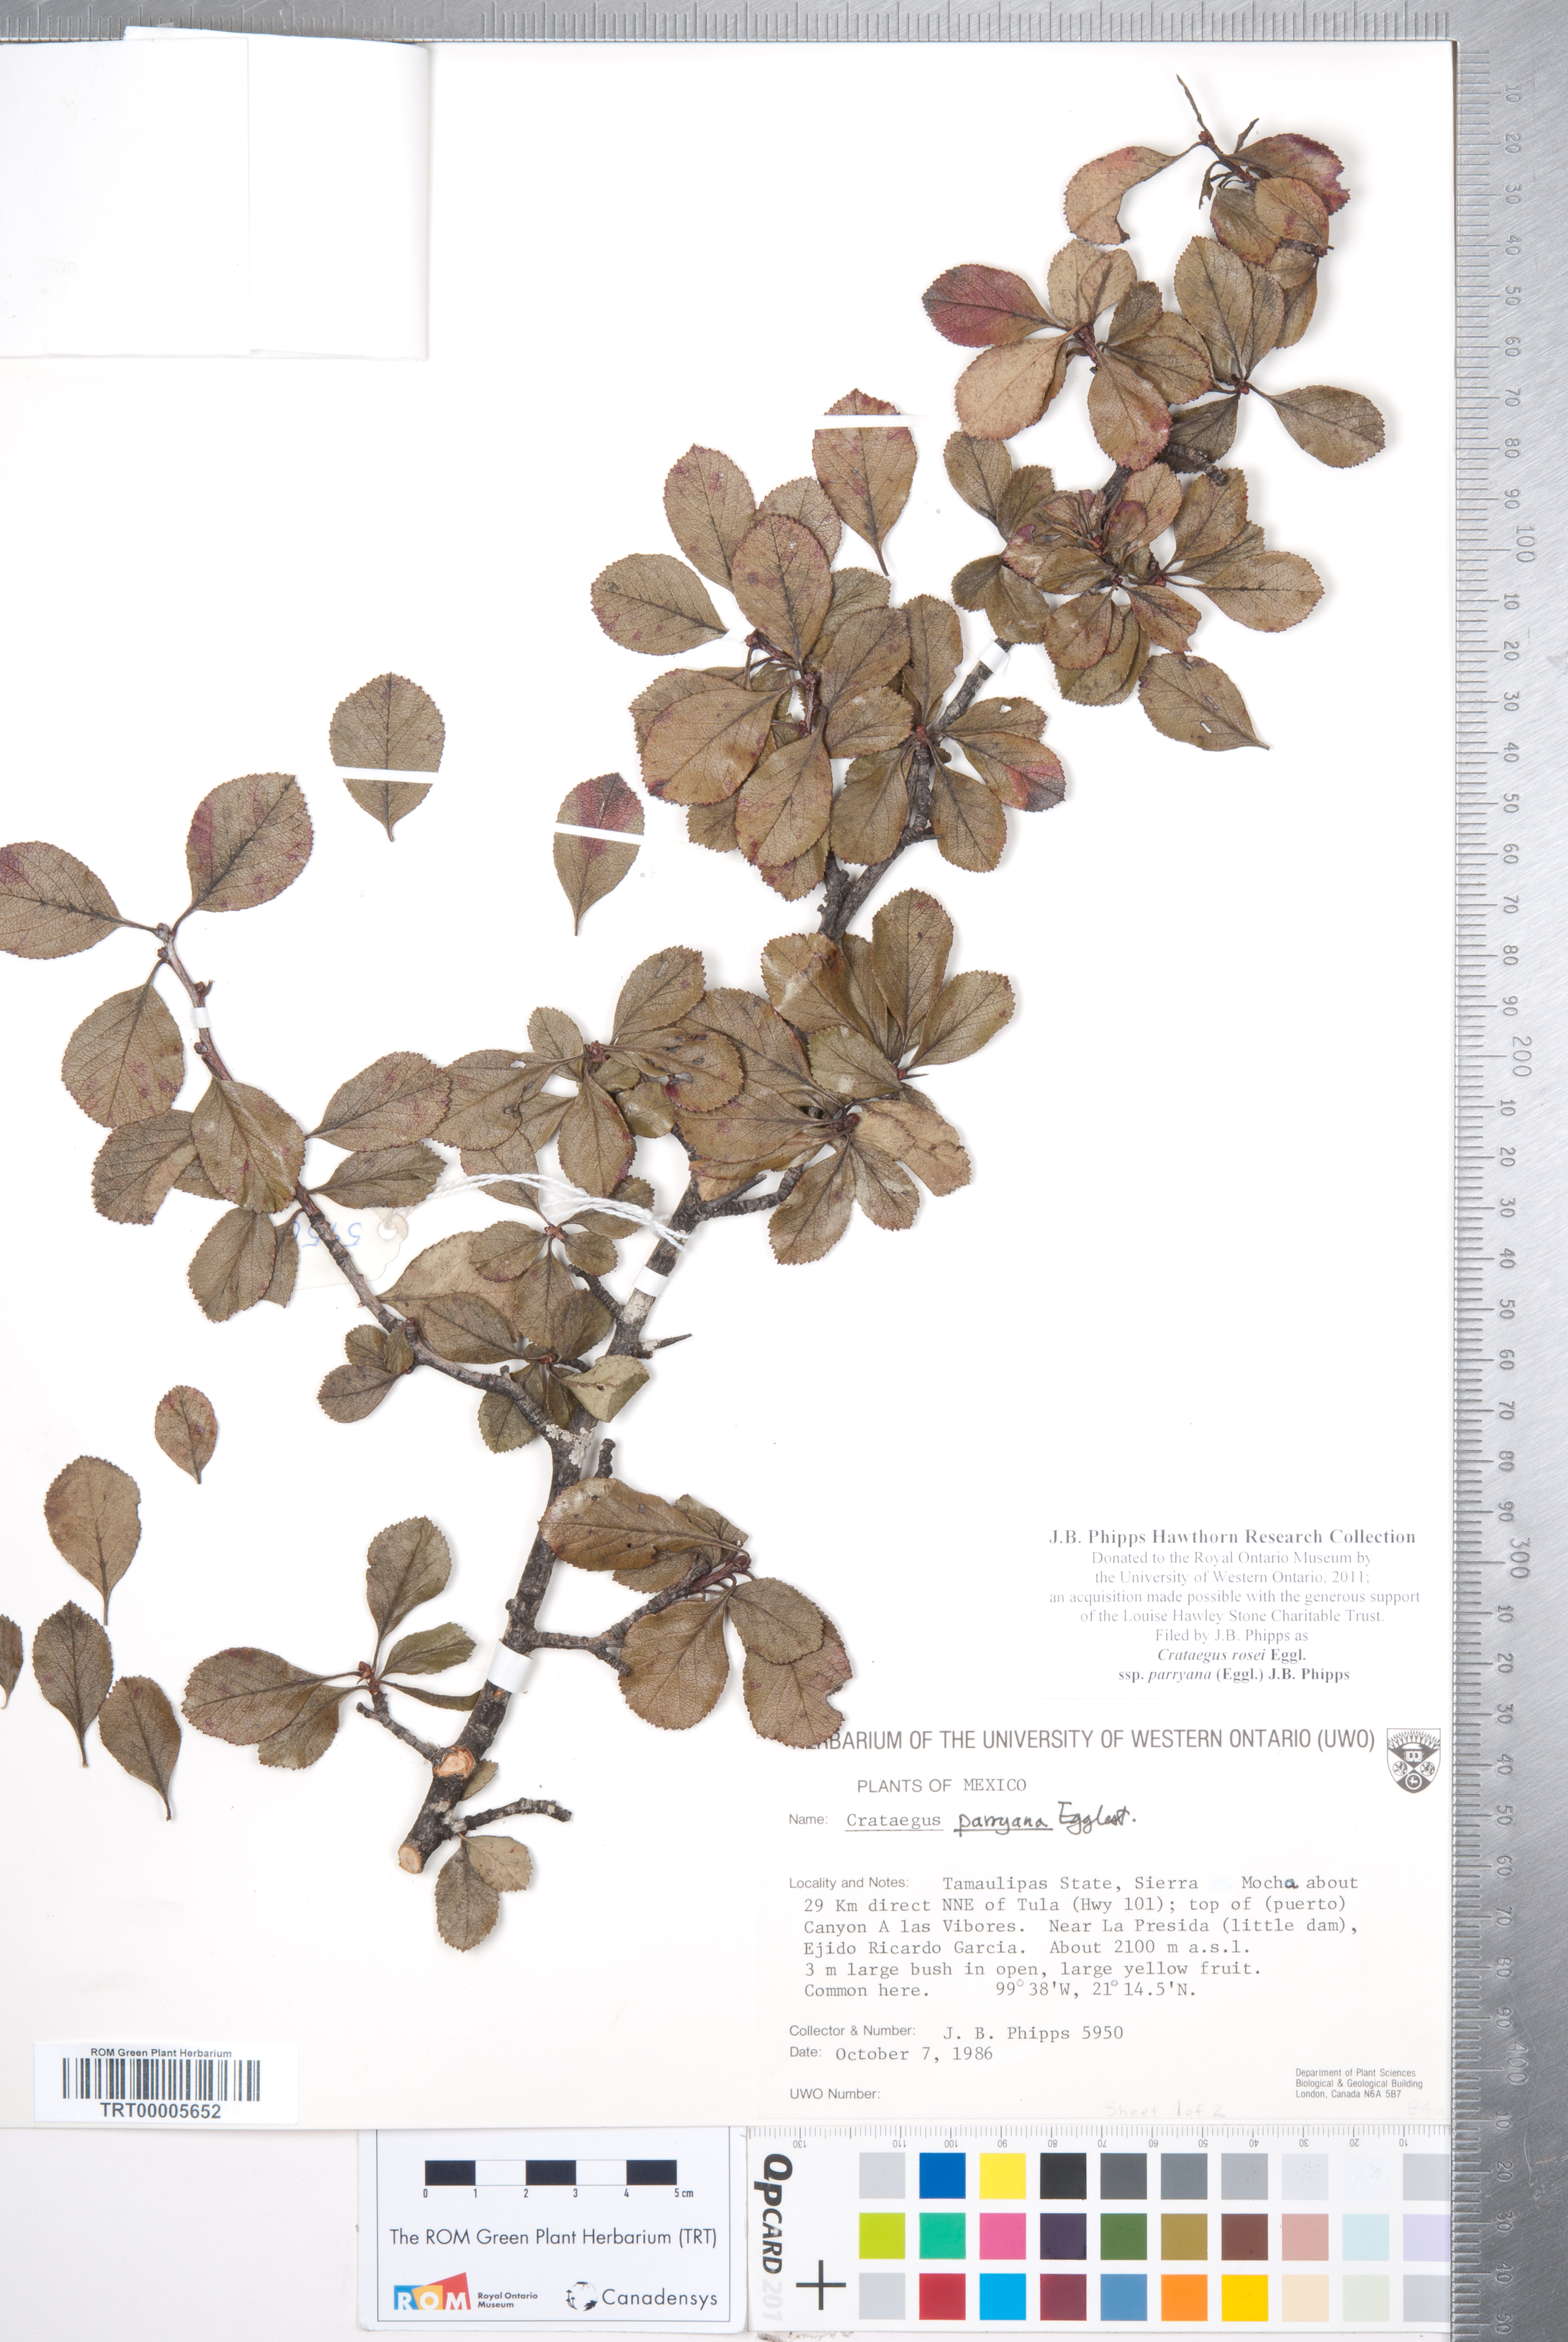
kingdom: Plantae
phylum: Tracheophyta
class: Magnoliopsida
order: Rosales
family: Rosaceae
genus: Crataegus
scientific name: Crataegus rosei
